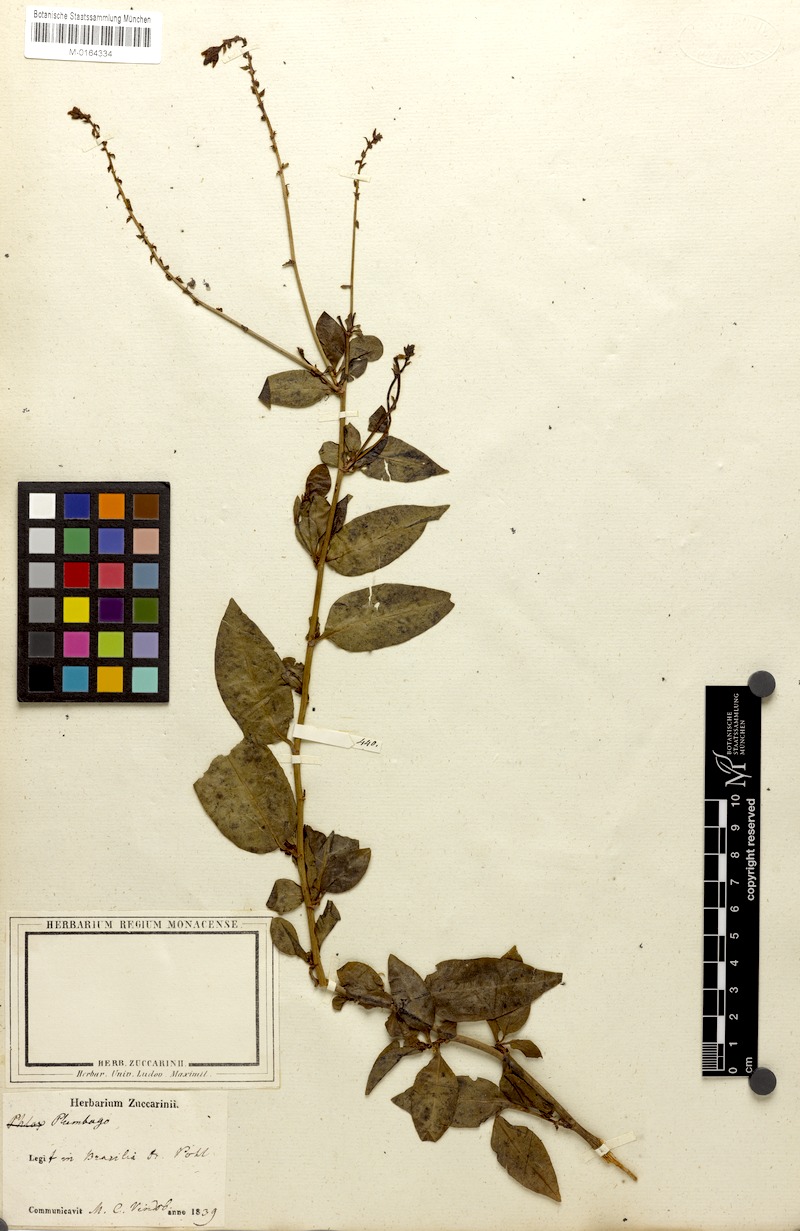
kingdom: Plantae
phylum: Tracheophyta
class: Magnoliopsida
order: Caryophyllales
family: Plumbaginaceae
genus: Plumbago
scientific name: Plumbago zeylanica
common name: Doctorbush
